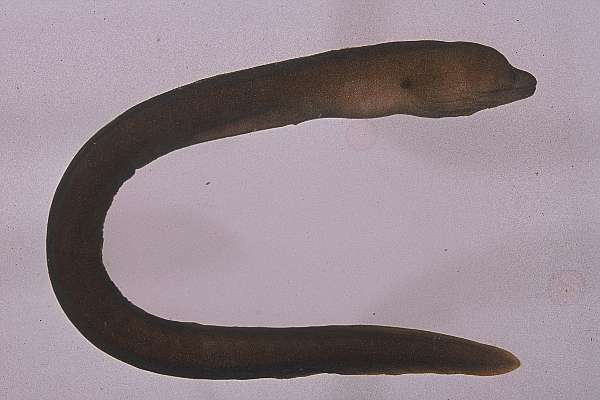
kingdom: Animalia
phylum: Chordata
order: Anguilliformes
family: Muraenidae
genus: Gymnothorax
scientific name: Gymnothorax meleagris
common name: Guineafowl moray
